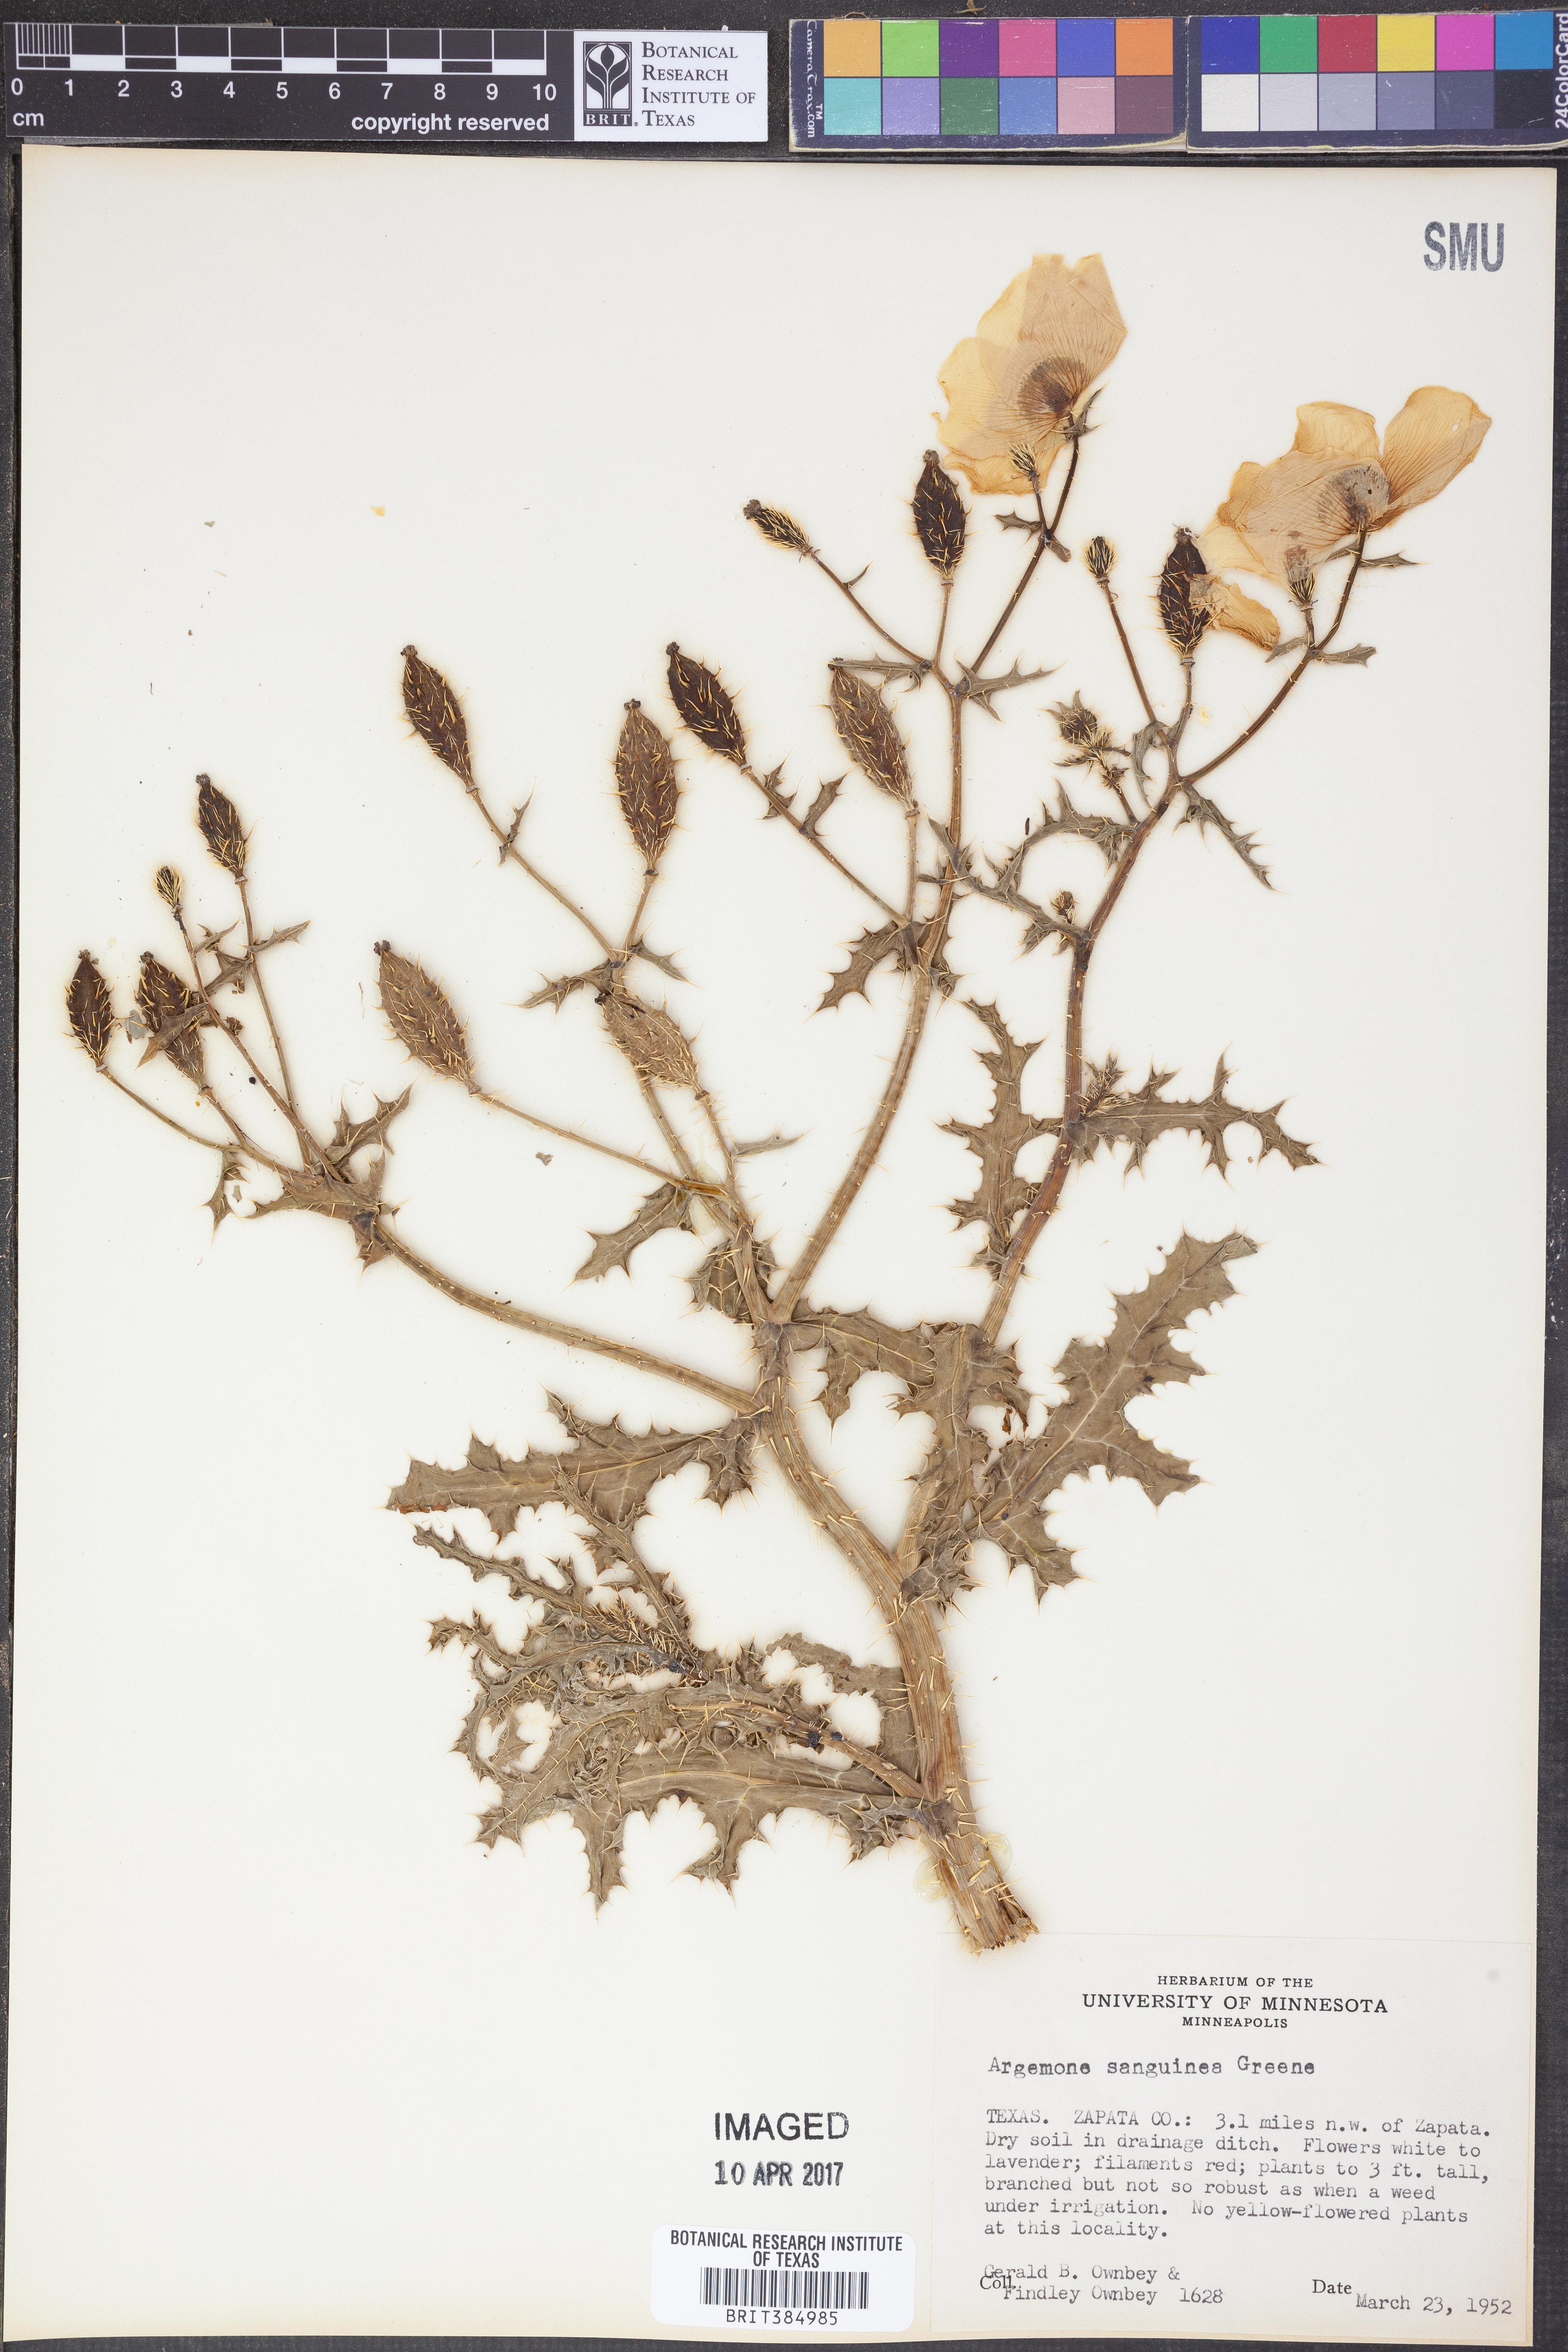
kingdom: Plantae
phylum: Tracheophyta
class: Magnoliopsida
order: Ranunculales
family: Papaveraceae
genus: Argemone
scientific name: Argemone sanguinea
